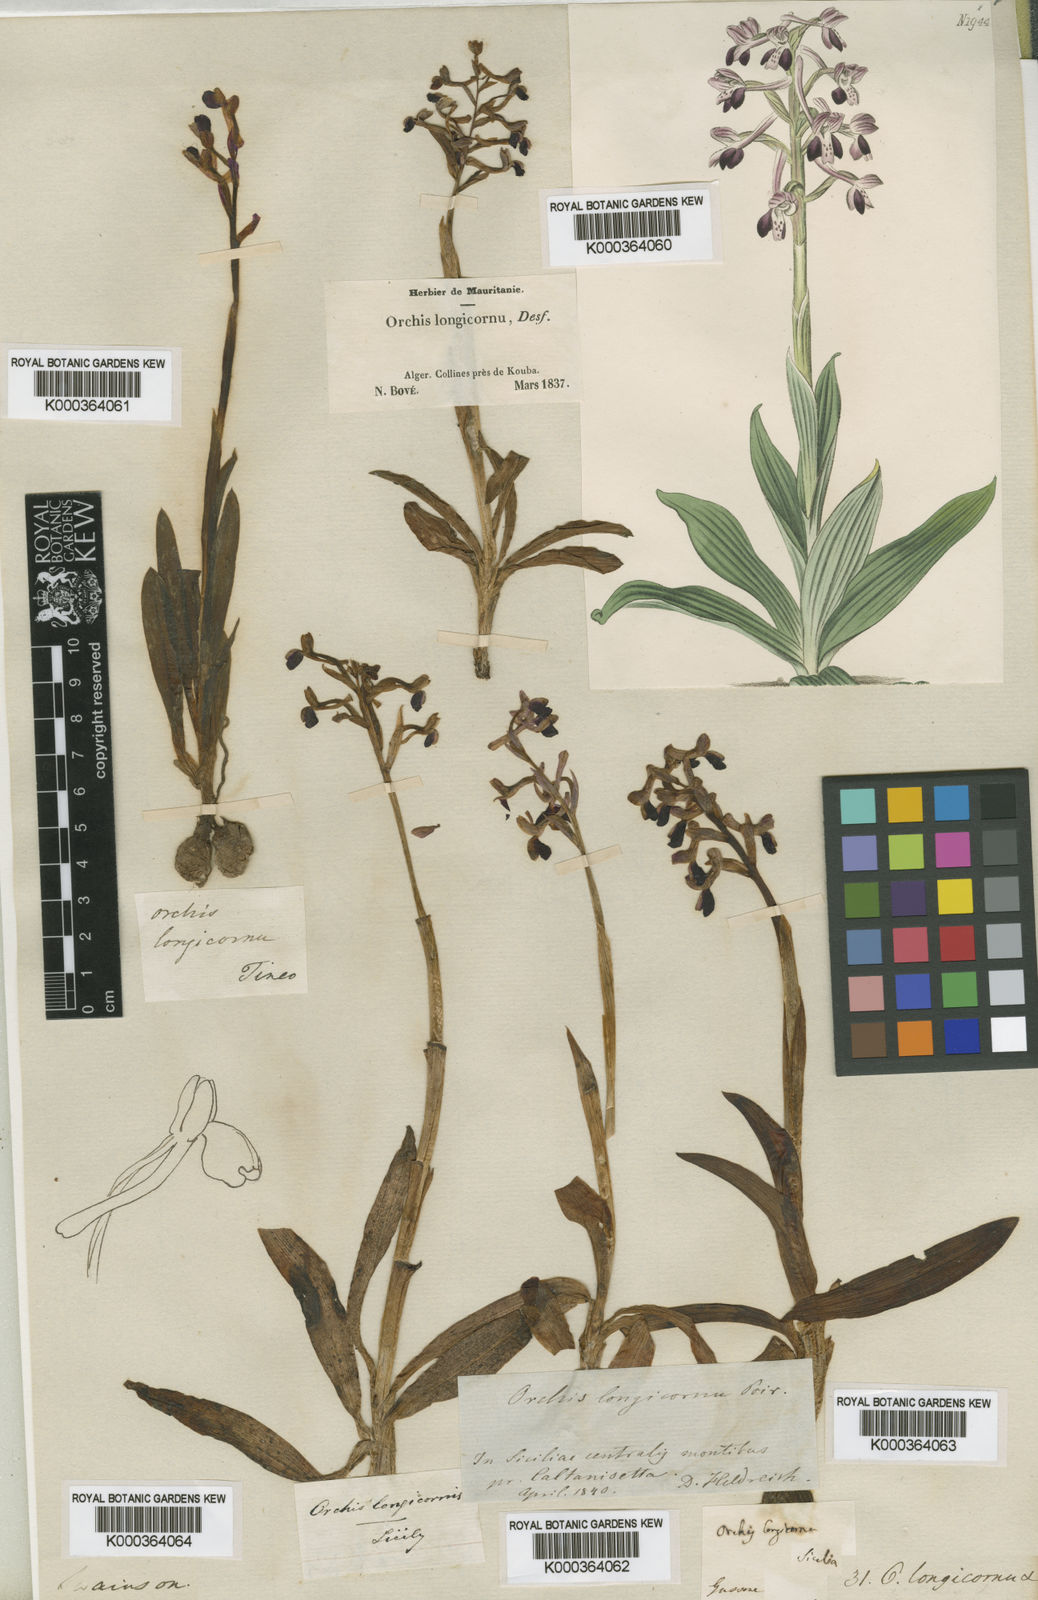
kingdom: Plantae
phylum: Tracheophyta
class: Liliopsida
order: Asparagales
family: Orchidaceae
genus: Anacamptis
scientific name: Anacamptis
